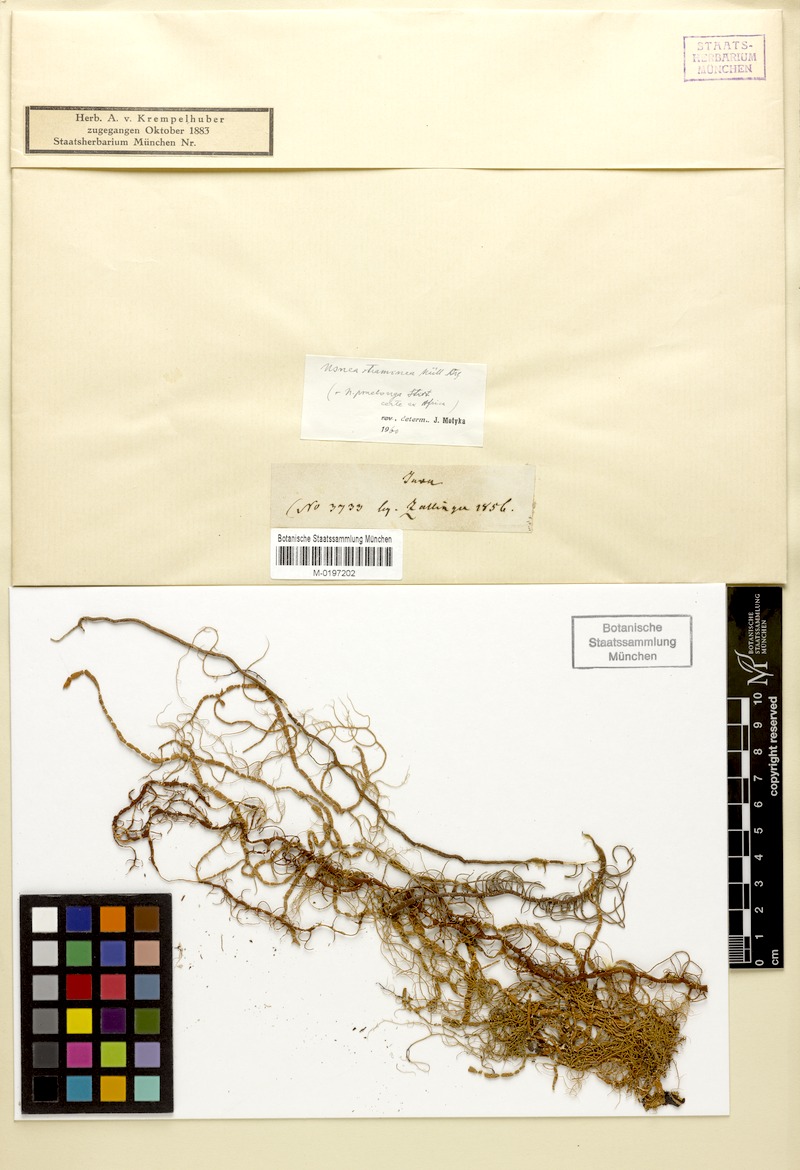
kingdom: Fungi
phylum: Ascomycota
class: Lecanoromycetes
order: Lecanorales
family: Parmeliaceae
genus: Usnea
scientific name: Usnea nidifica
